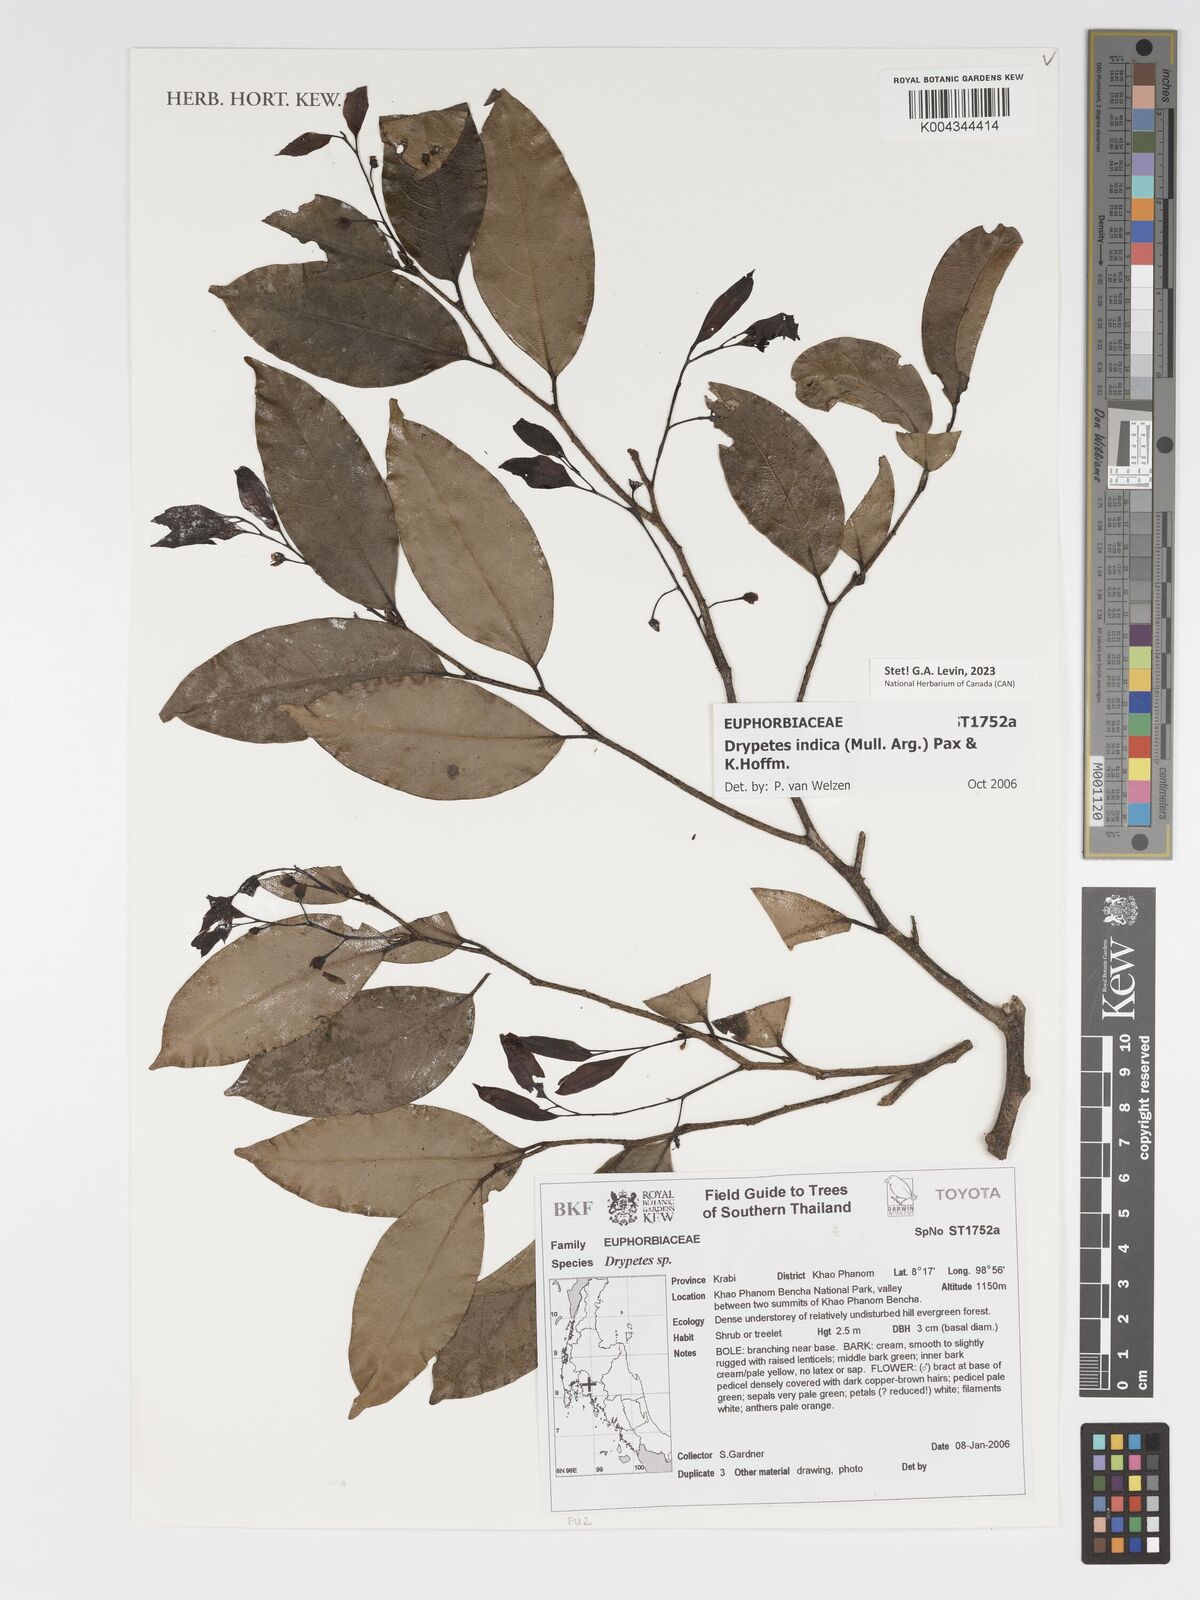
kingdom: Plantae
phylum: Tracheophyta
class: Magnoliopsida
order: Malpighiales
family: Putranjivaceae
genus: Drypetes
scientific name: Drypetes indica
